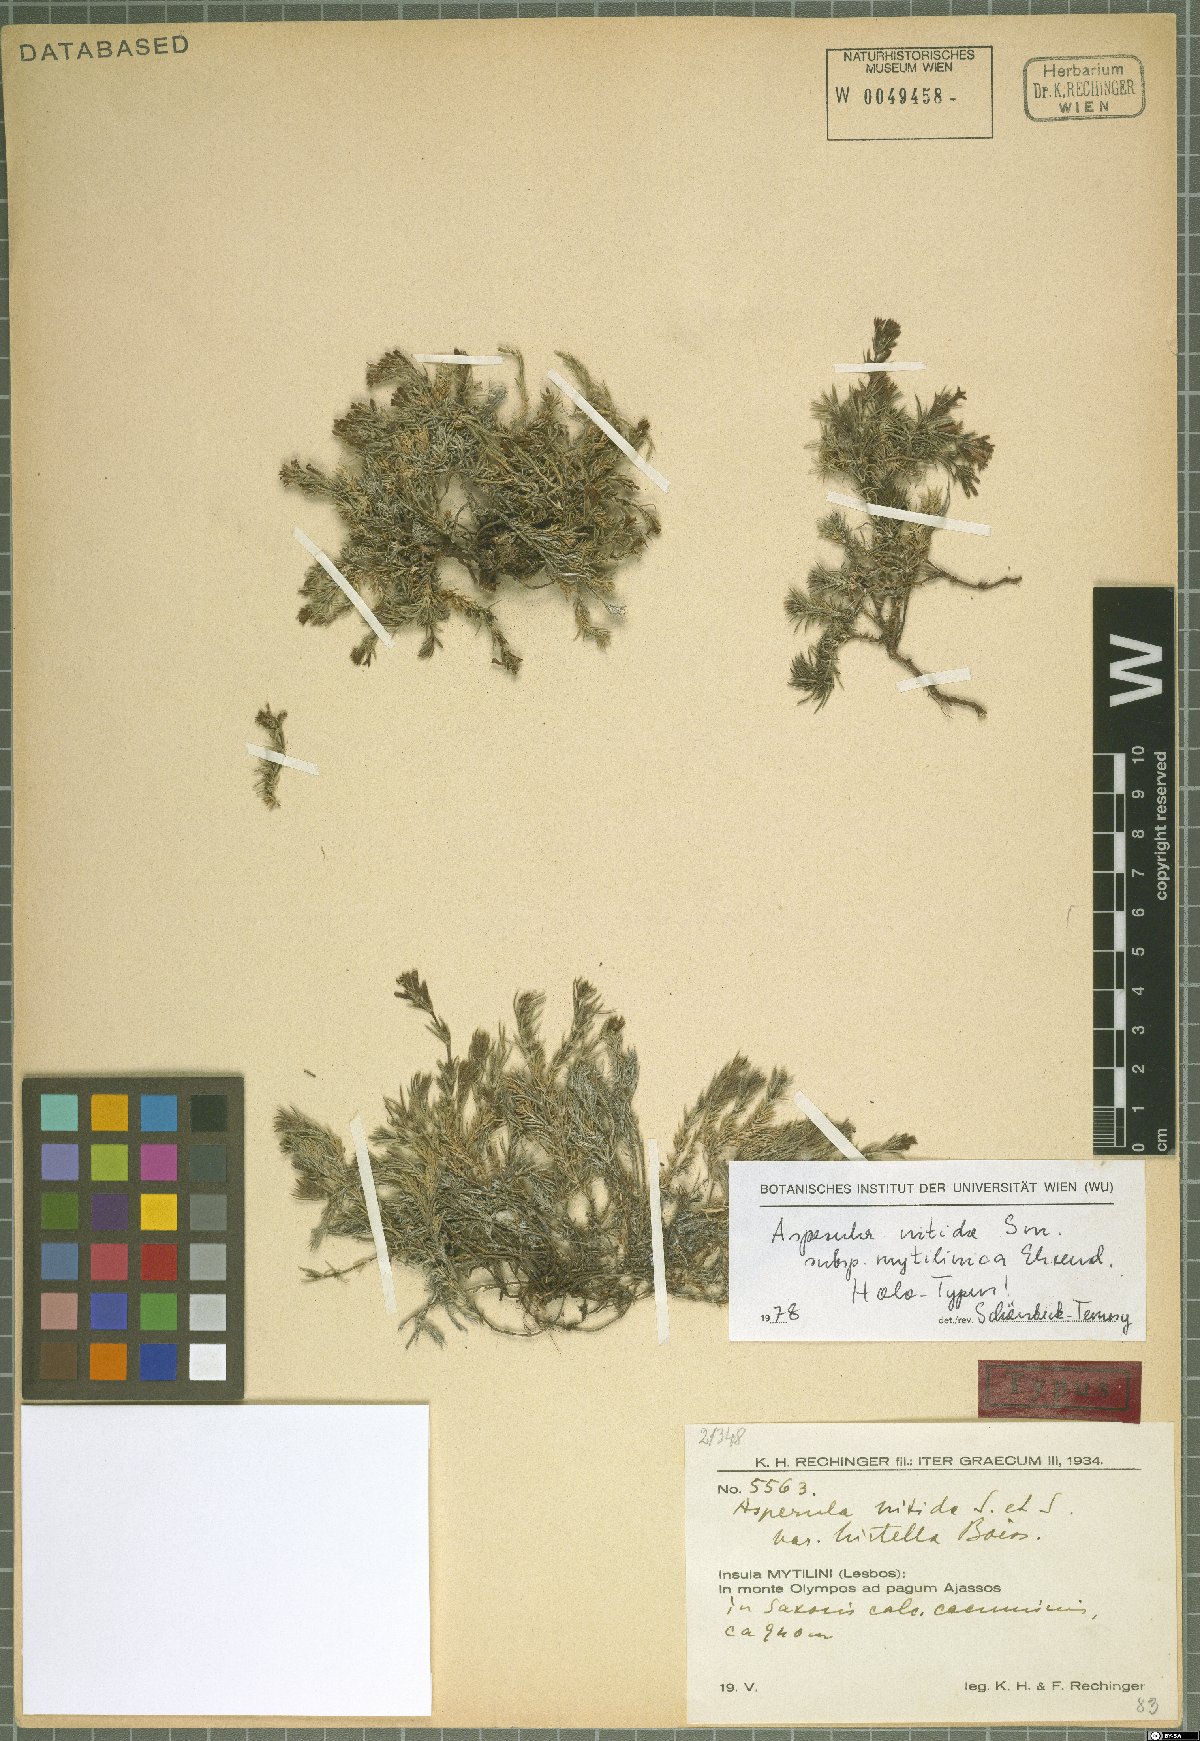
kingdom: Plantae
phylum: Tracheophyta
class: Magnoliopsida
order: Gentianales
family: Rubiaceae
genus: Cynanchica
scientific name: Cynanchica nitida
